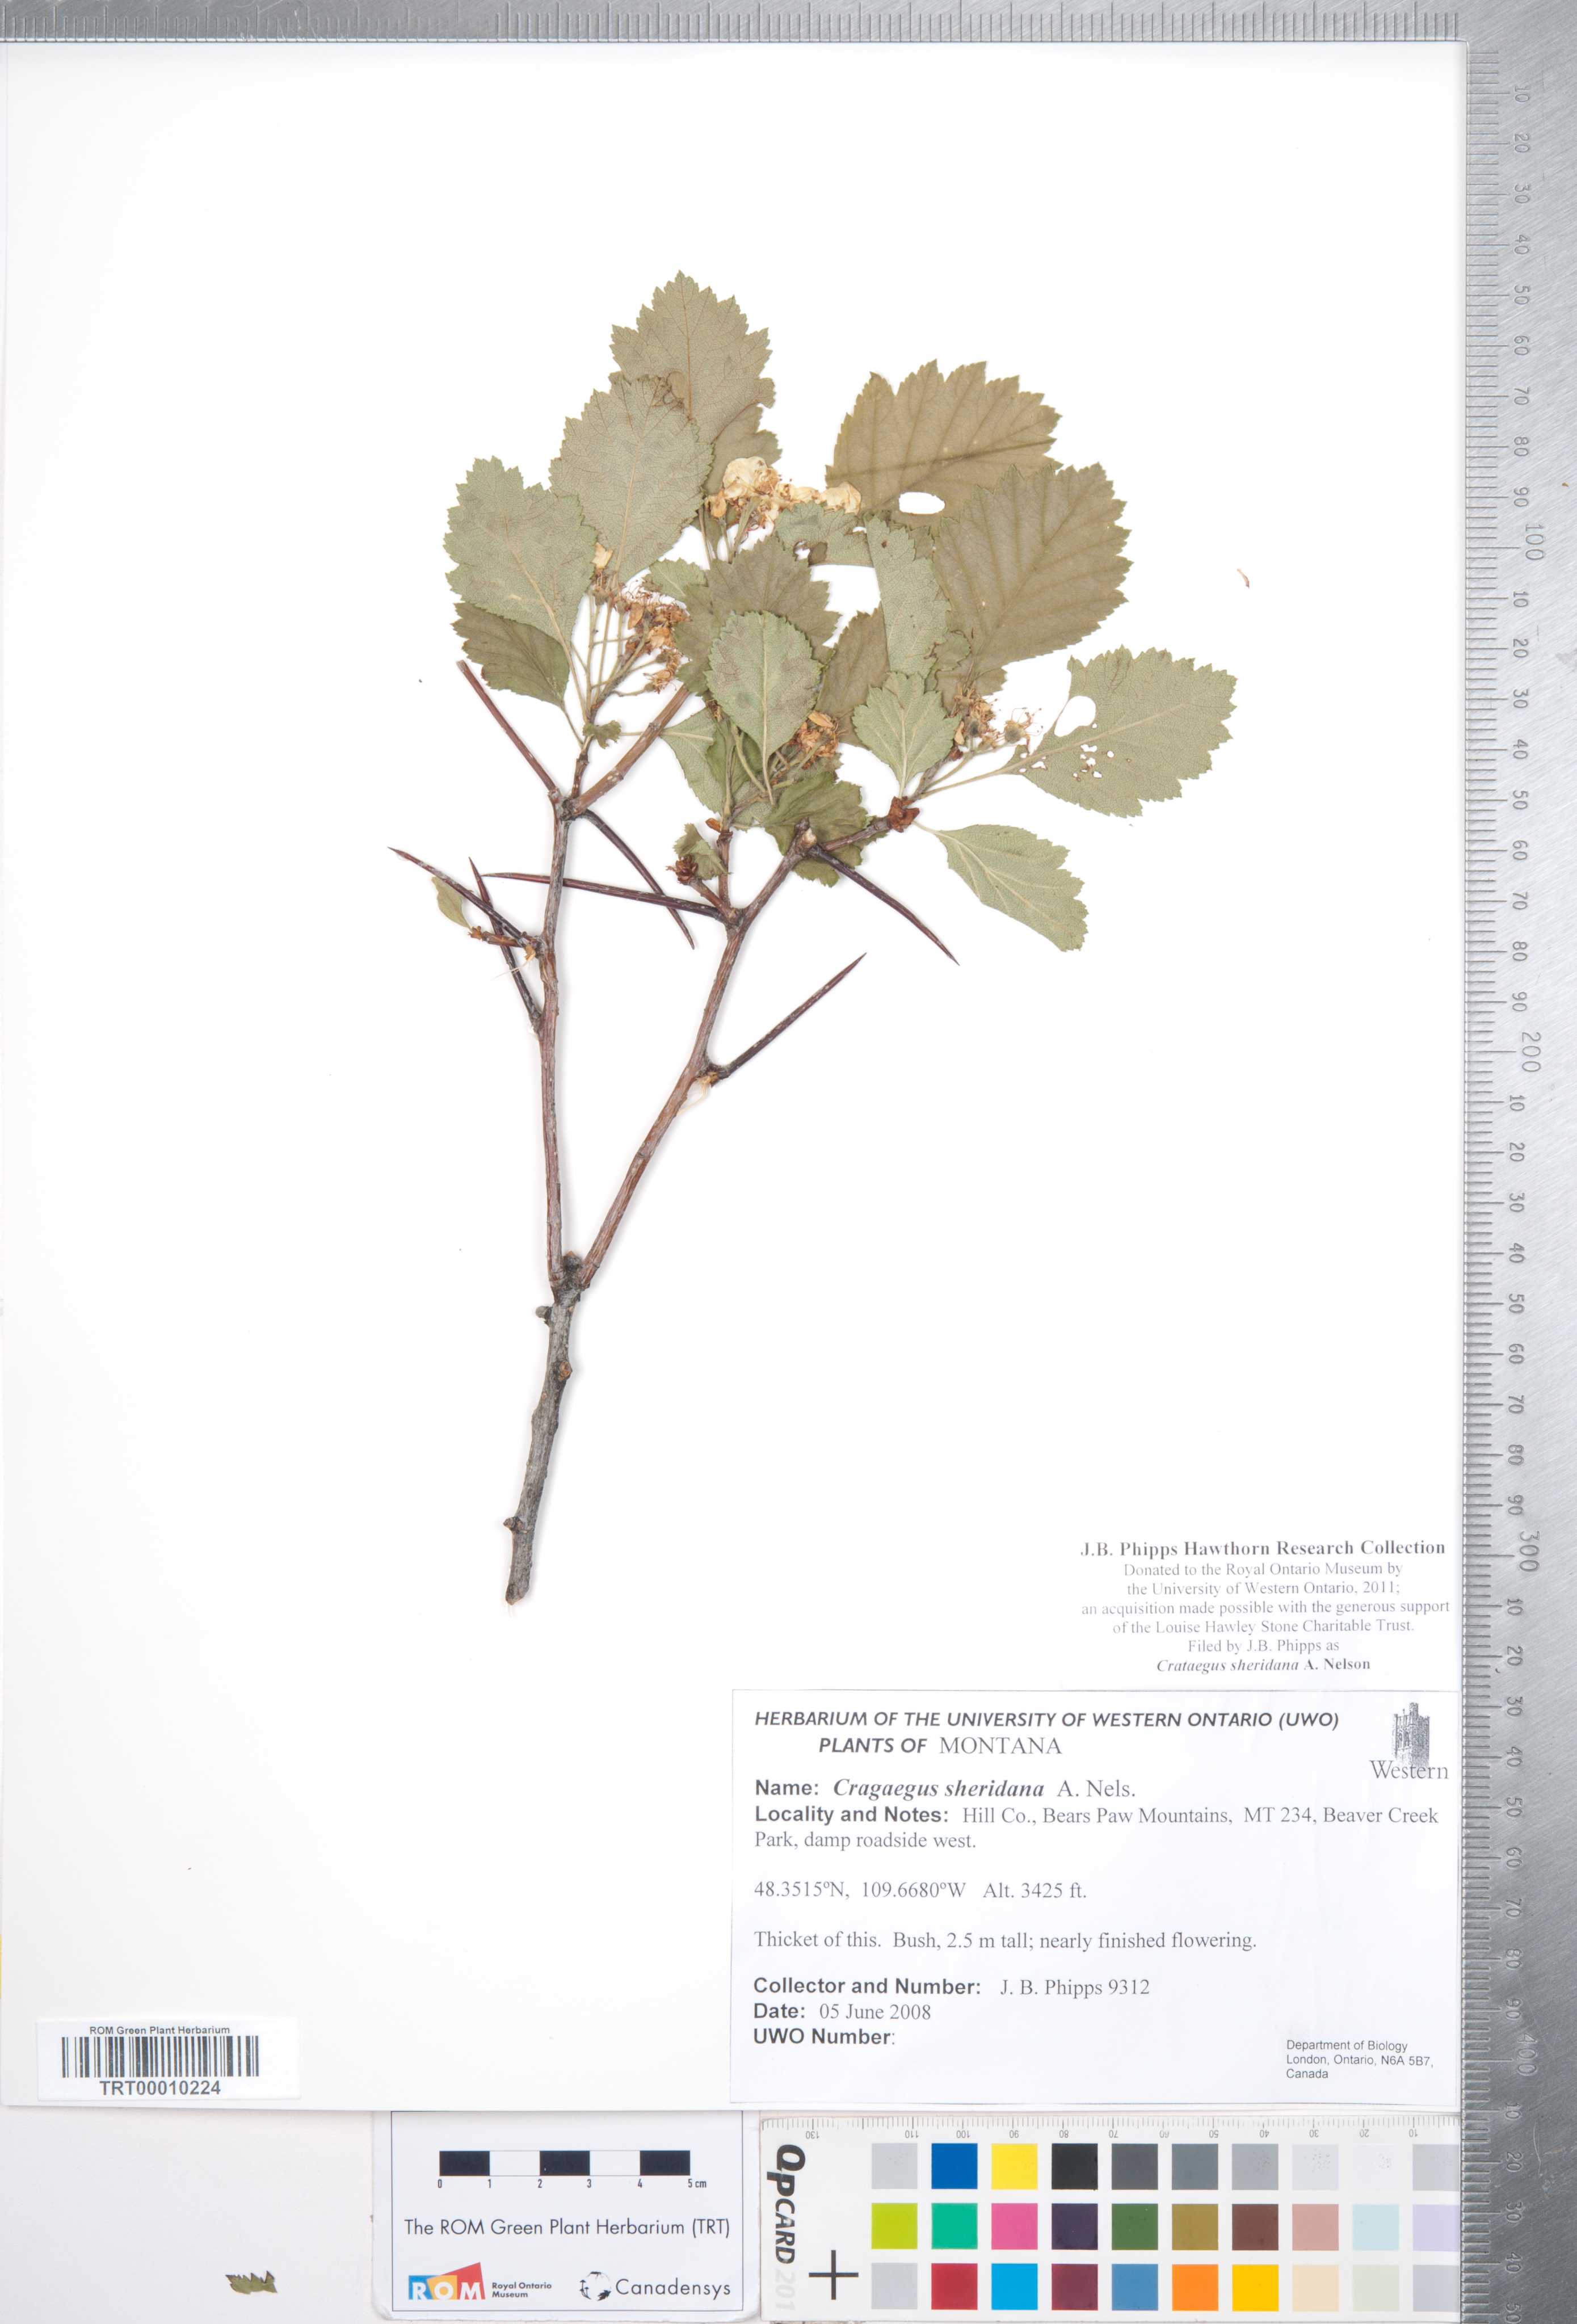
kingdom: Plantae
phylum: Tracheophyta
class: Magnoliopsida
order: Rosales
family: Rosaceae
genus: Crataegus
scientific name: Crataegus chrysocarpa
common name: Fire-berry hawthorn
